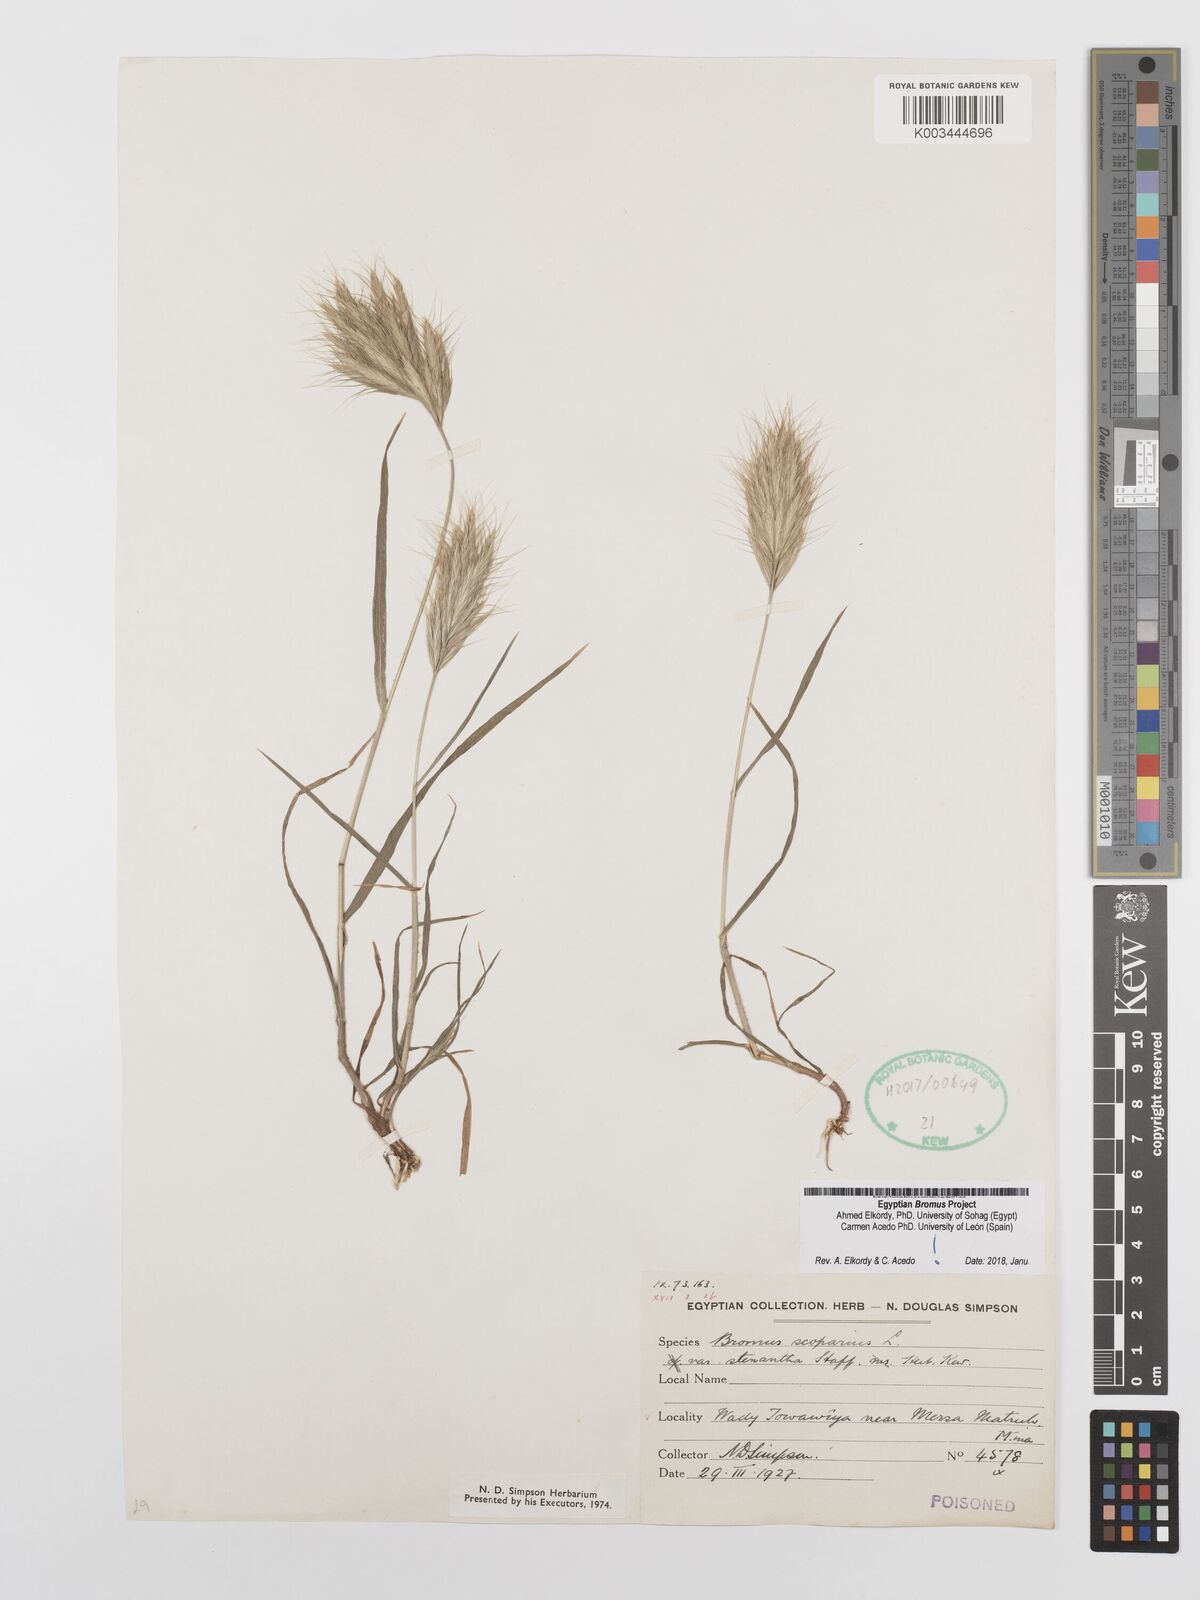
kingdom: Plantae
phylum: Tracheophyta
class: Liliopsida
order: Poales
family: Poaceae
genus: Bromus
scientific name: Bromus scoparius
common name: Broom brome
